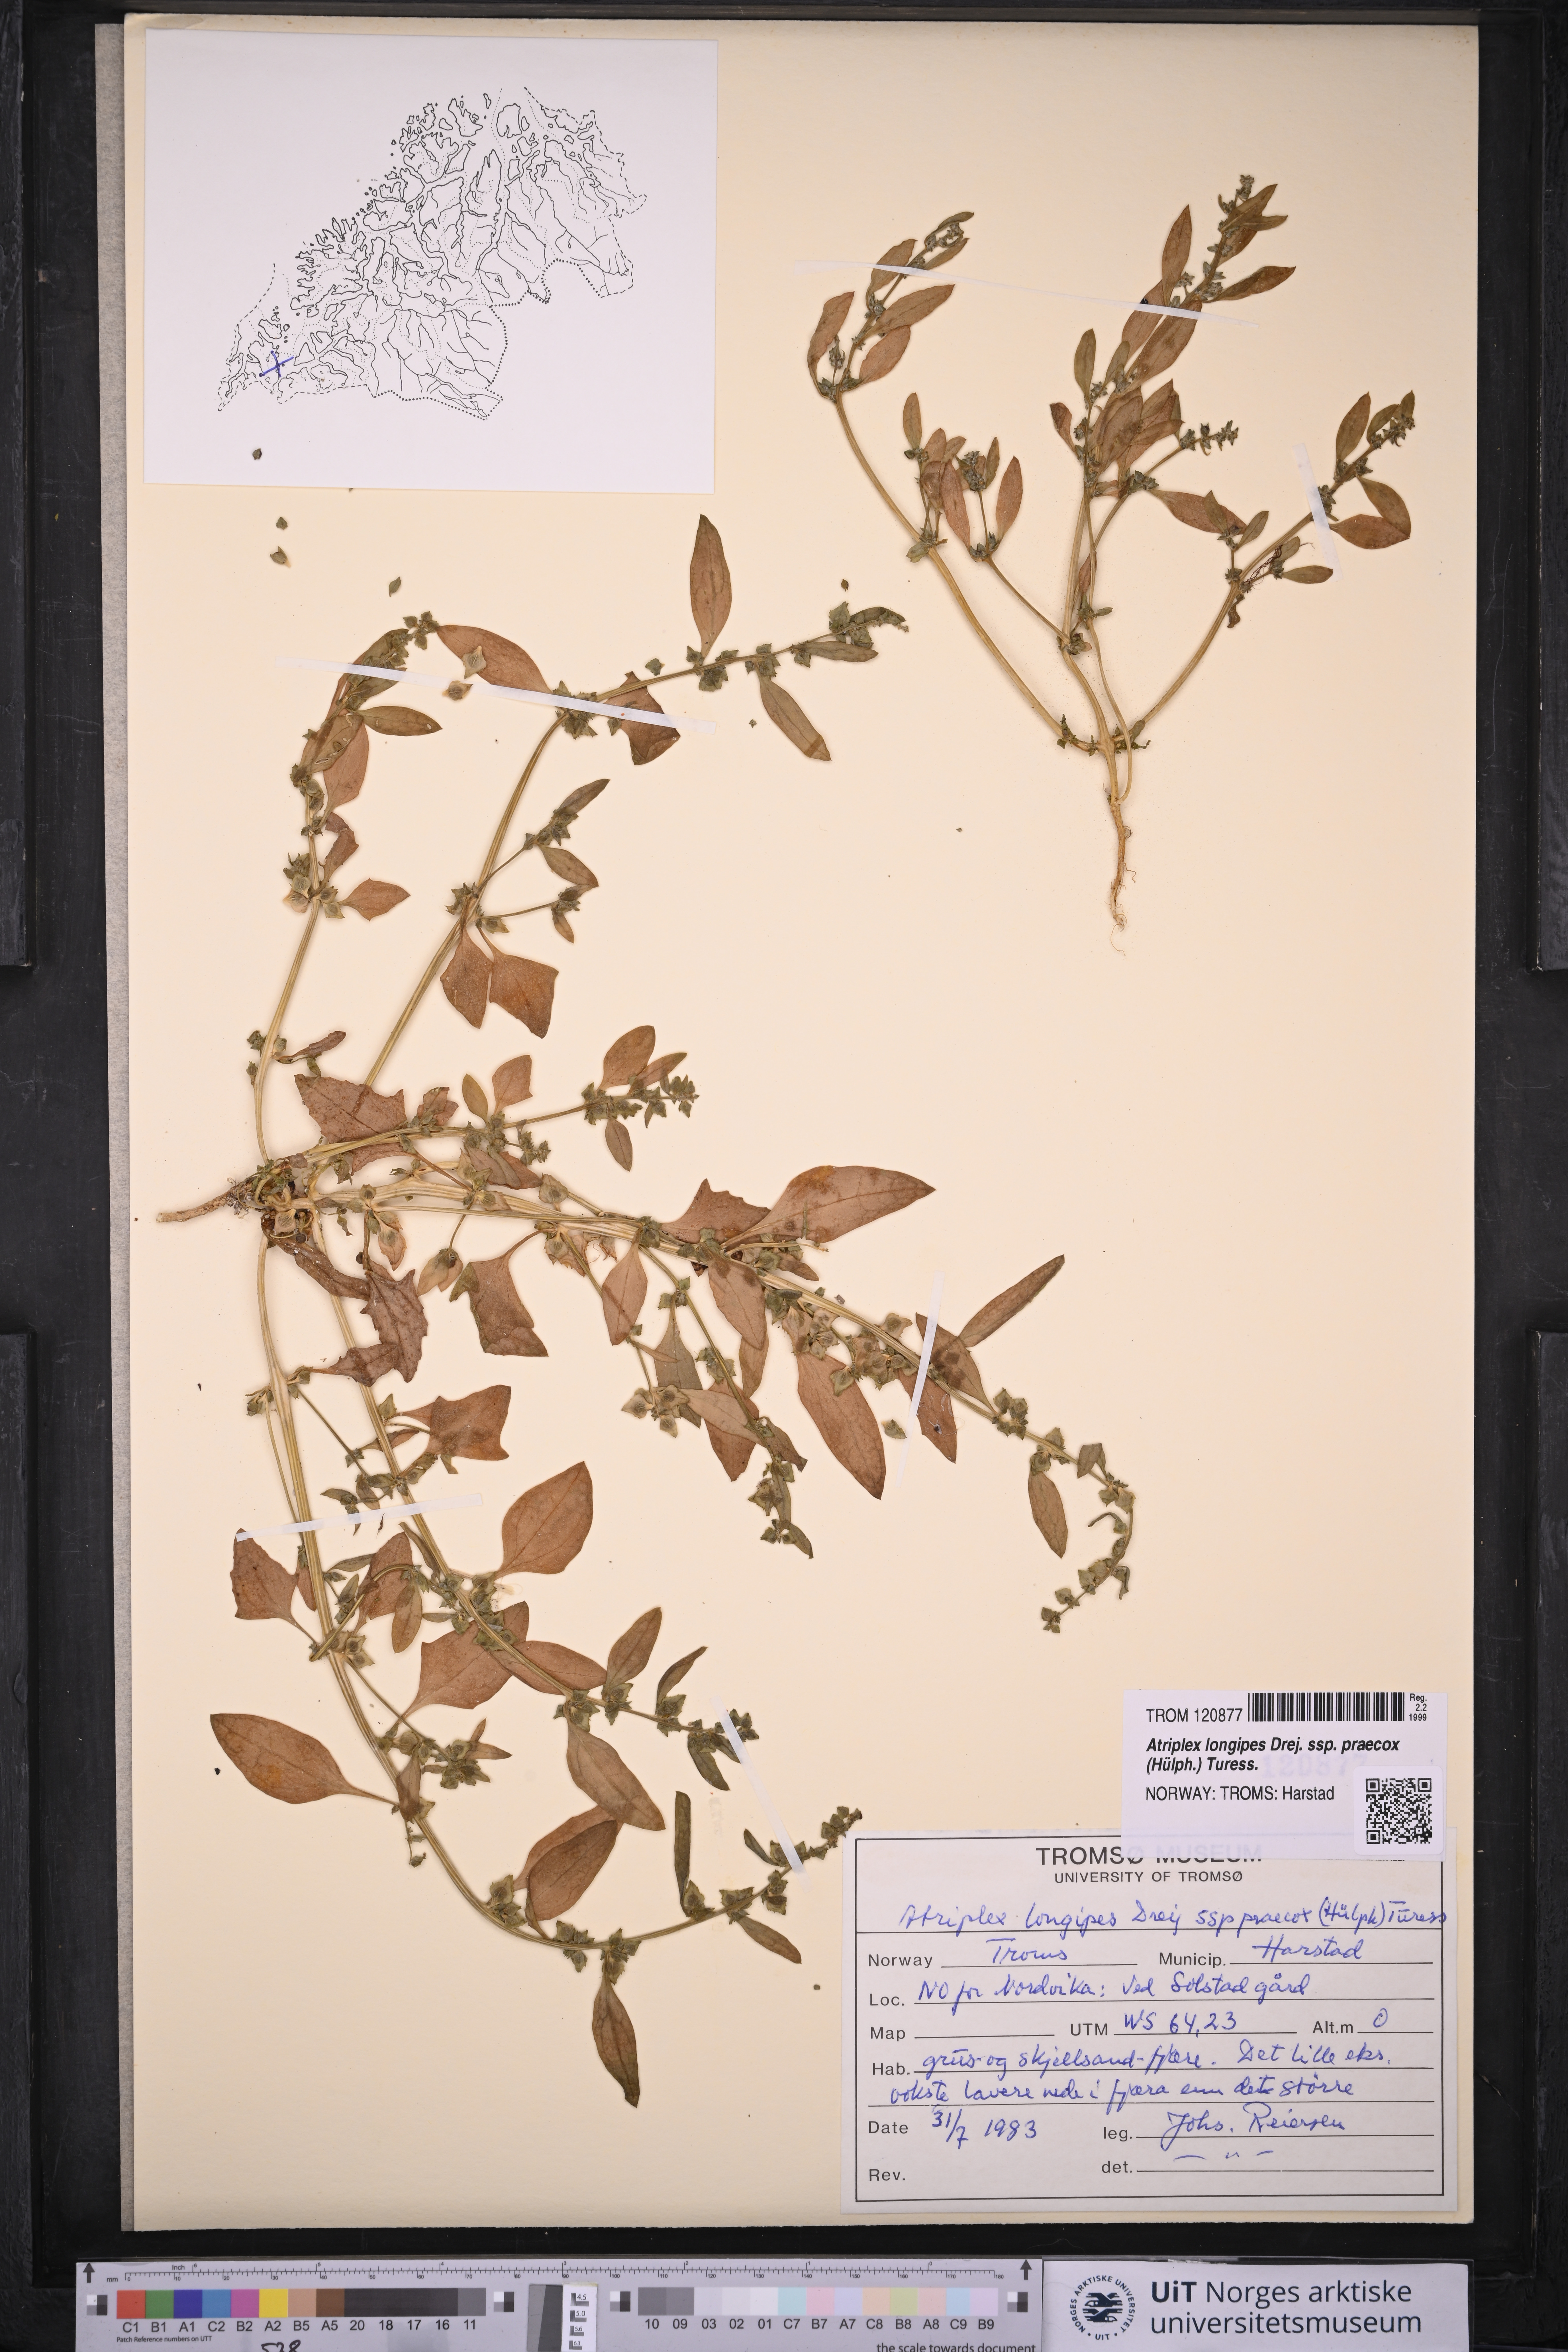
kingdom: Plantae
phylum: Tracheophyta
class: Magnoliopsida
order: Caryophyllales
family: Amaranthaceae
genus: Atriplex
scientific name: Atriplex praecox
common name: Early orache
